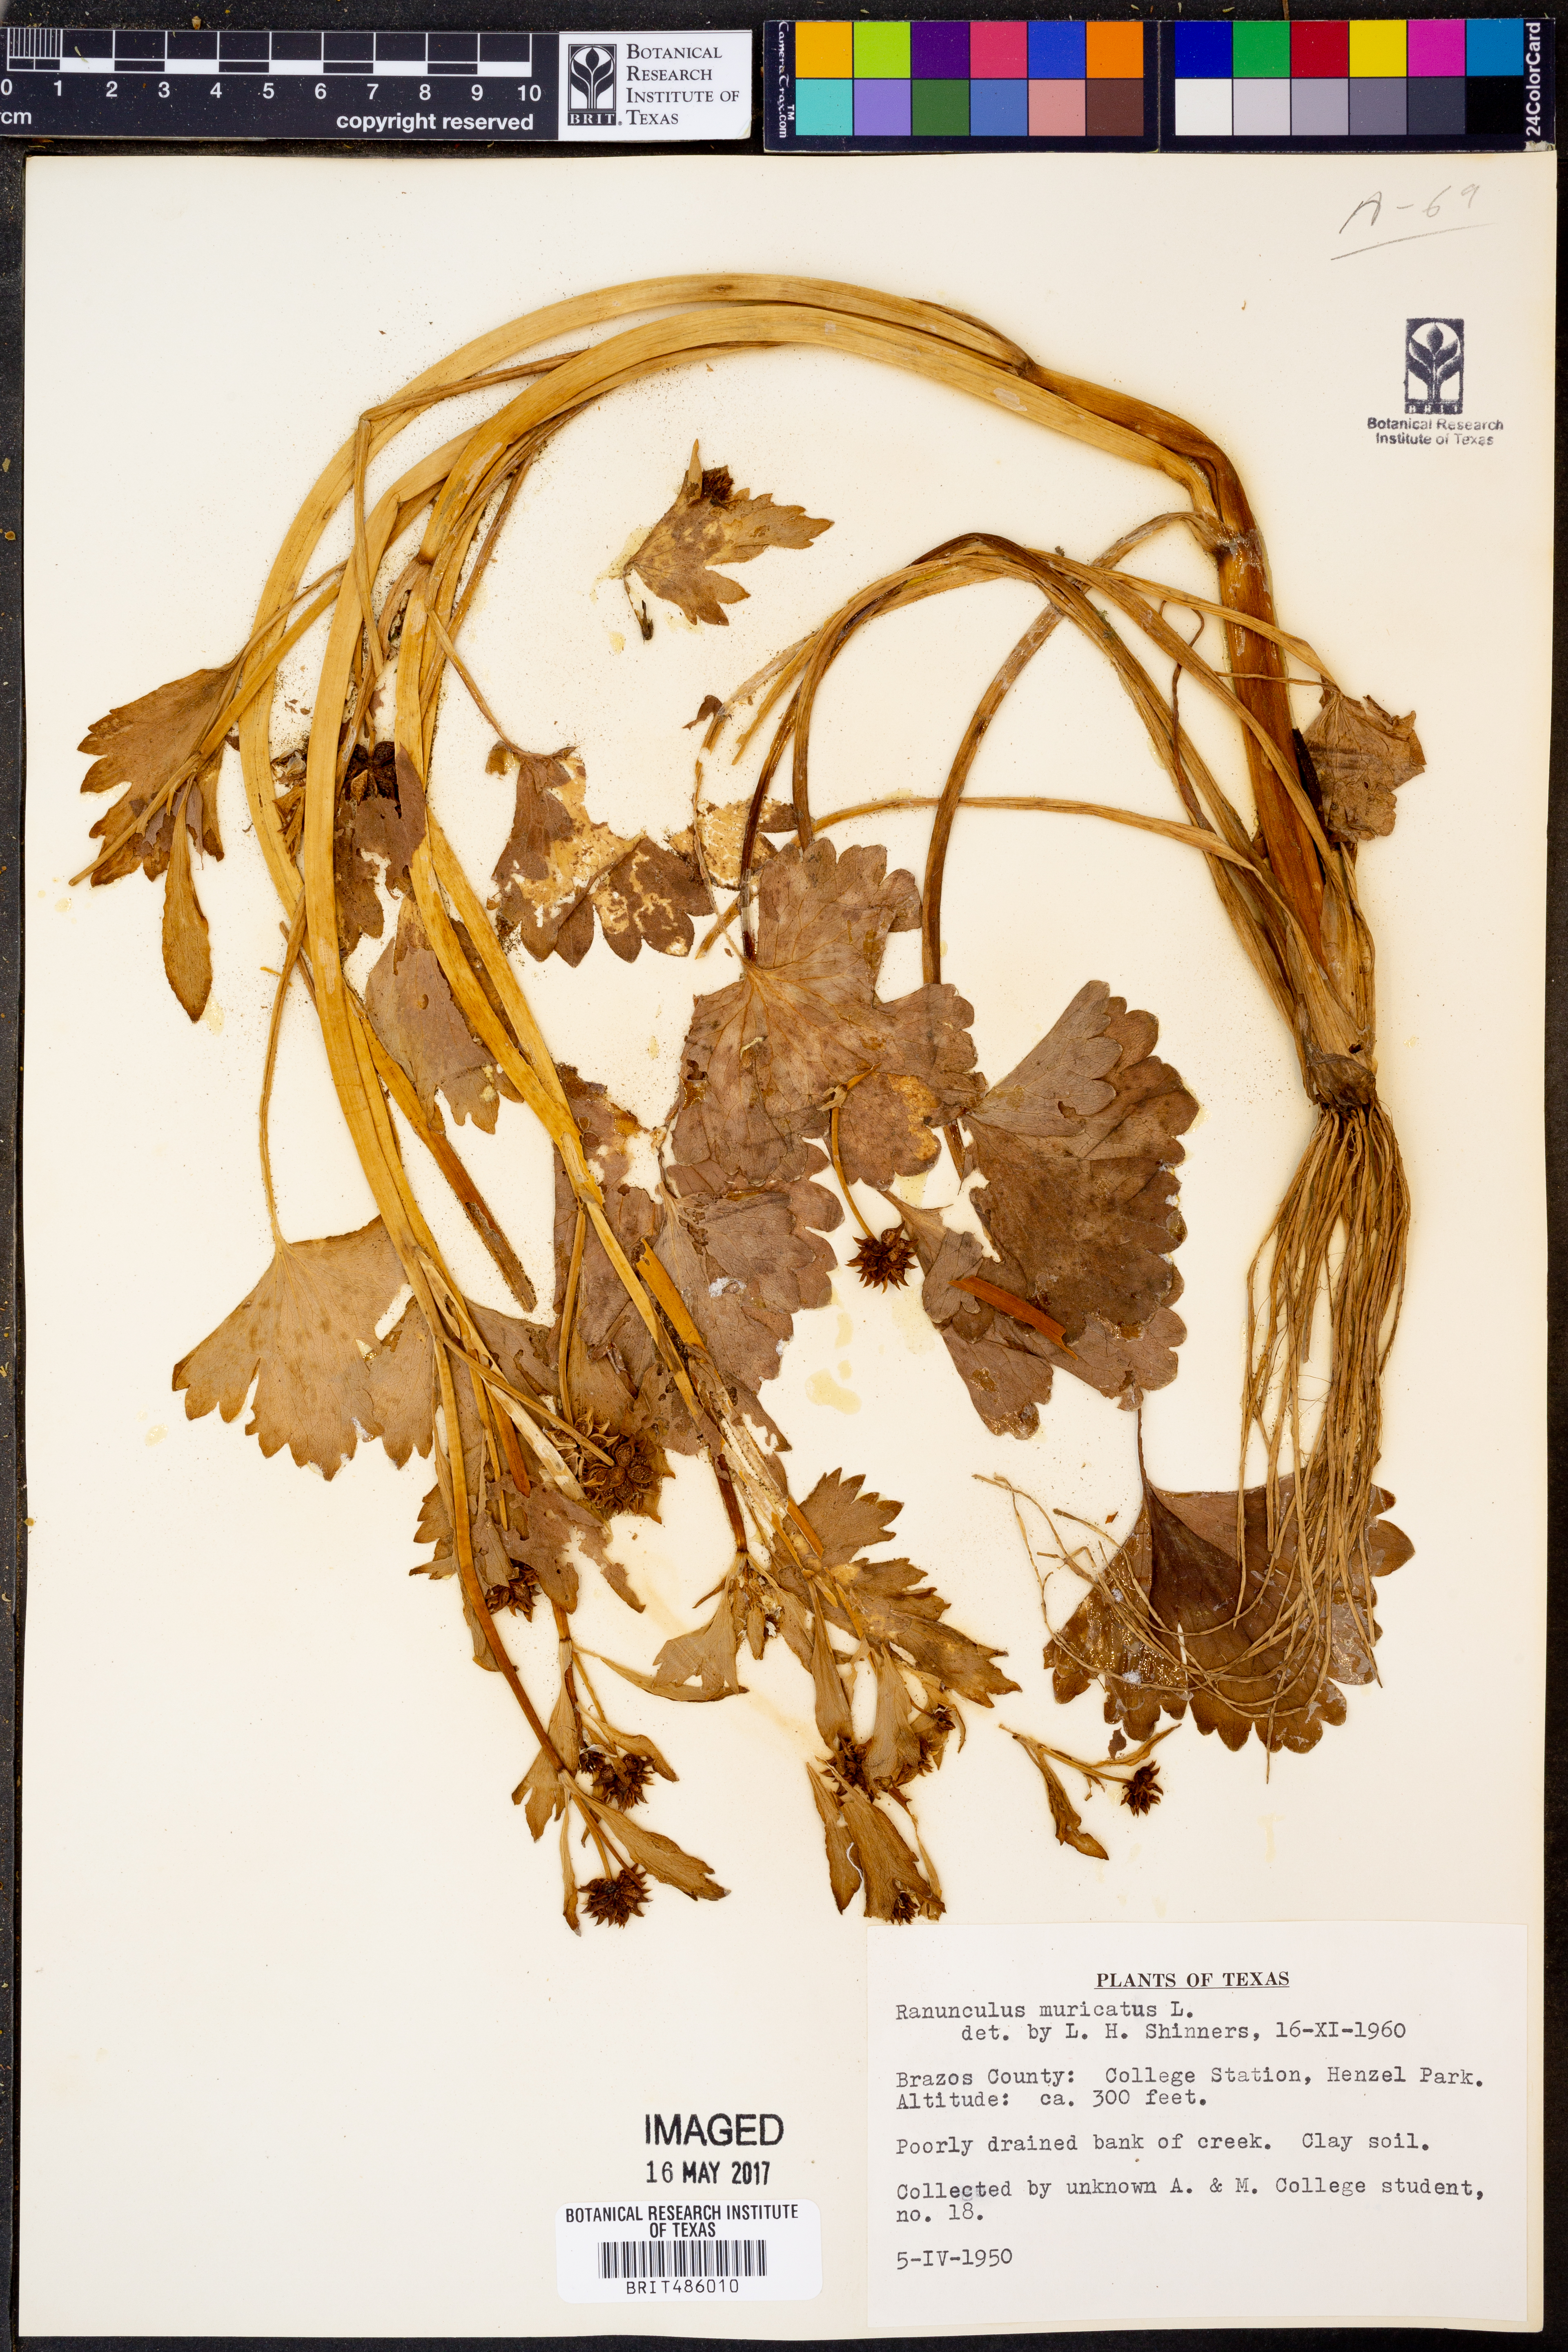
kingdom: Plantae
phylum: Tracheophyta
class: Magnoliopsida
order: Ranunculales
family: Ranunculaceae
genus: Ranunculus
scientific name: Ranunculus muricatus
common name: Rough-fruited buttercup
